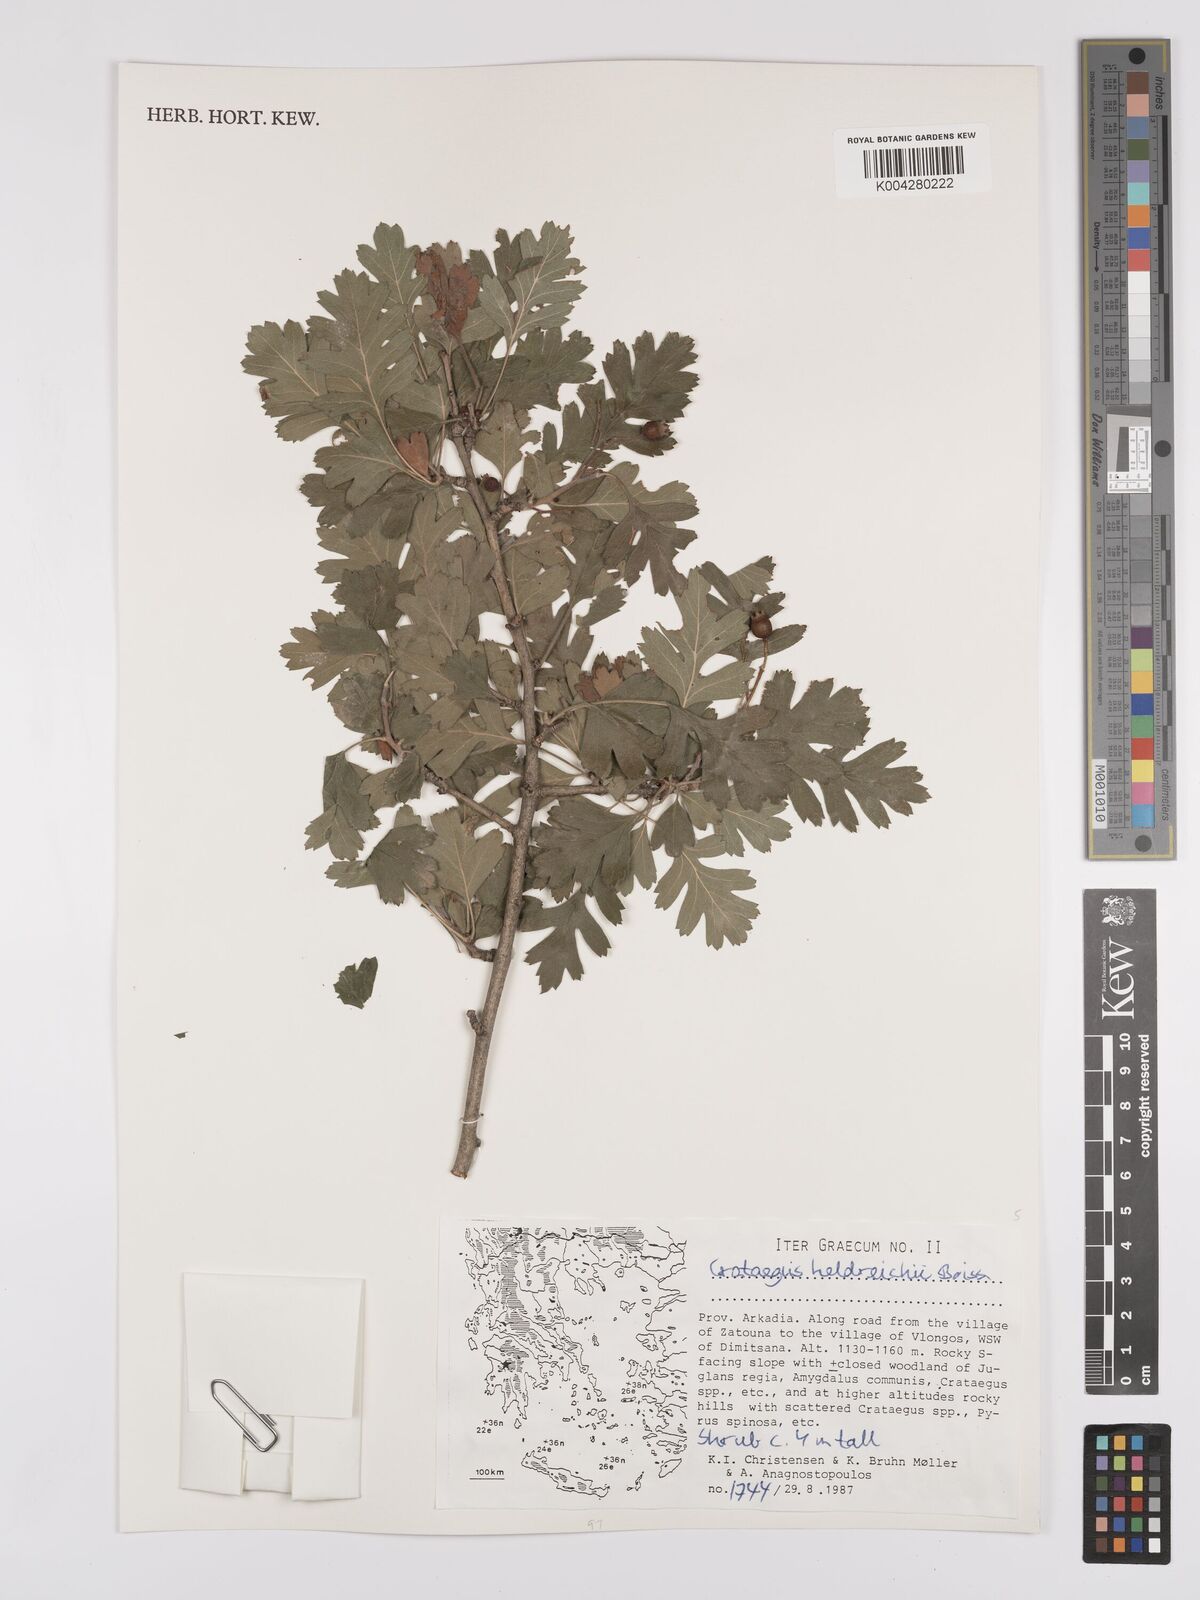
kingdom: Plantae
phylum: Tracheophyta
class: Magnoliopsida
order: Rosales
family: Rosaceae
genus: Crataegus
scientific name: Crataegus heldreichii
